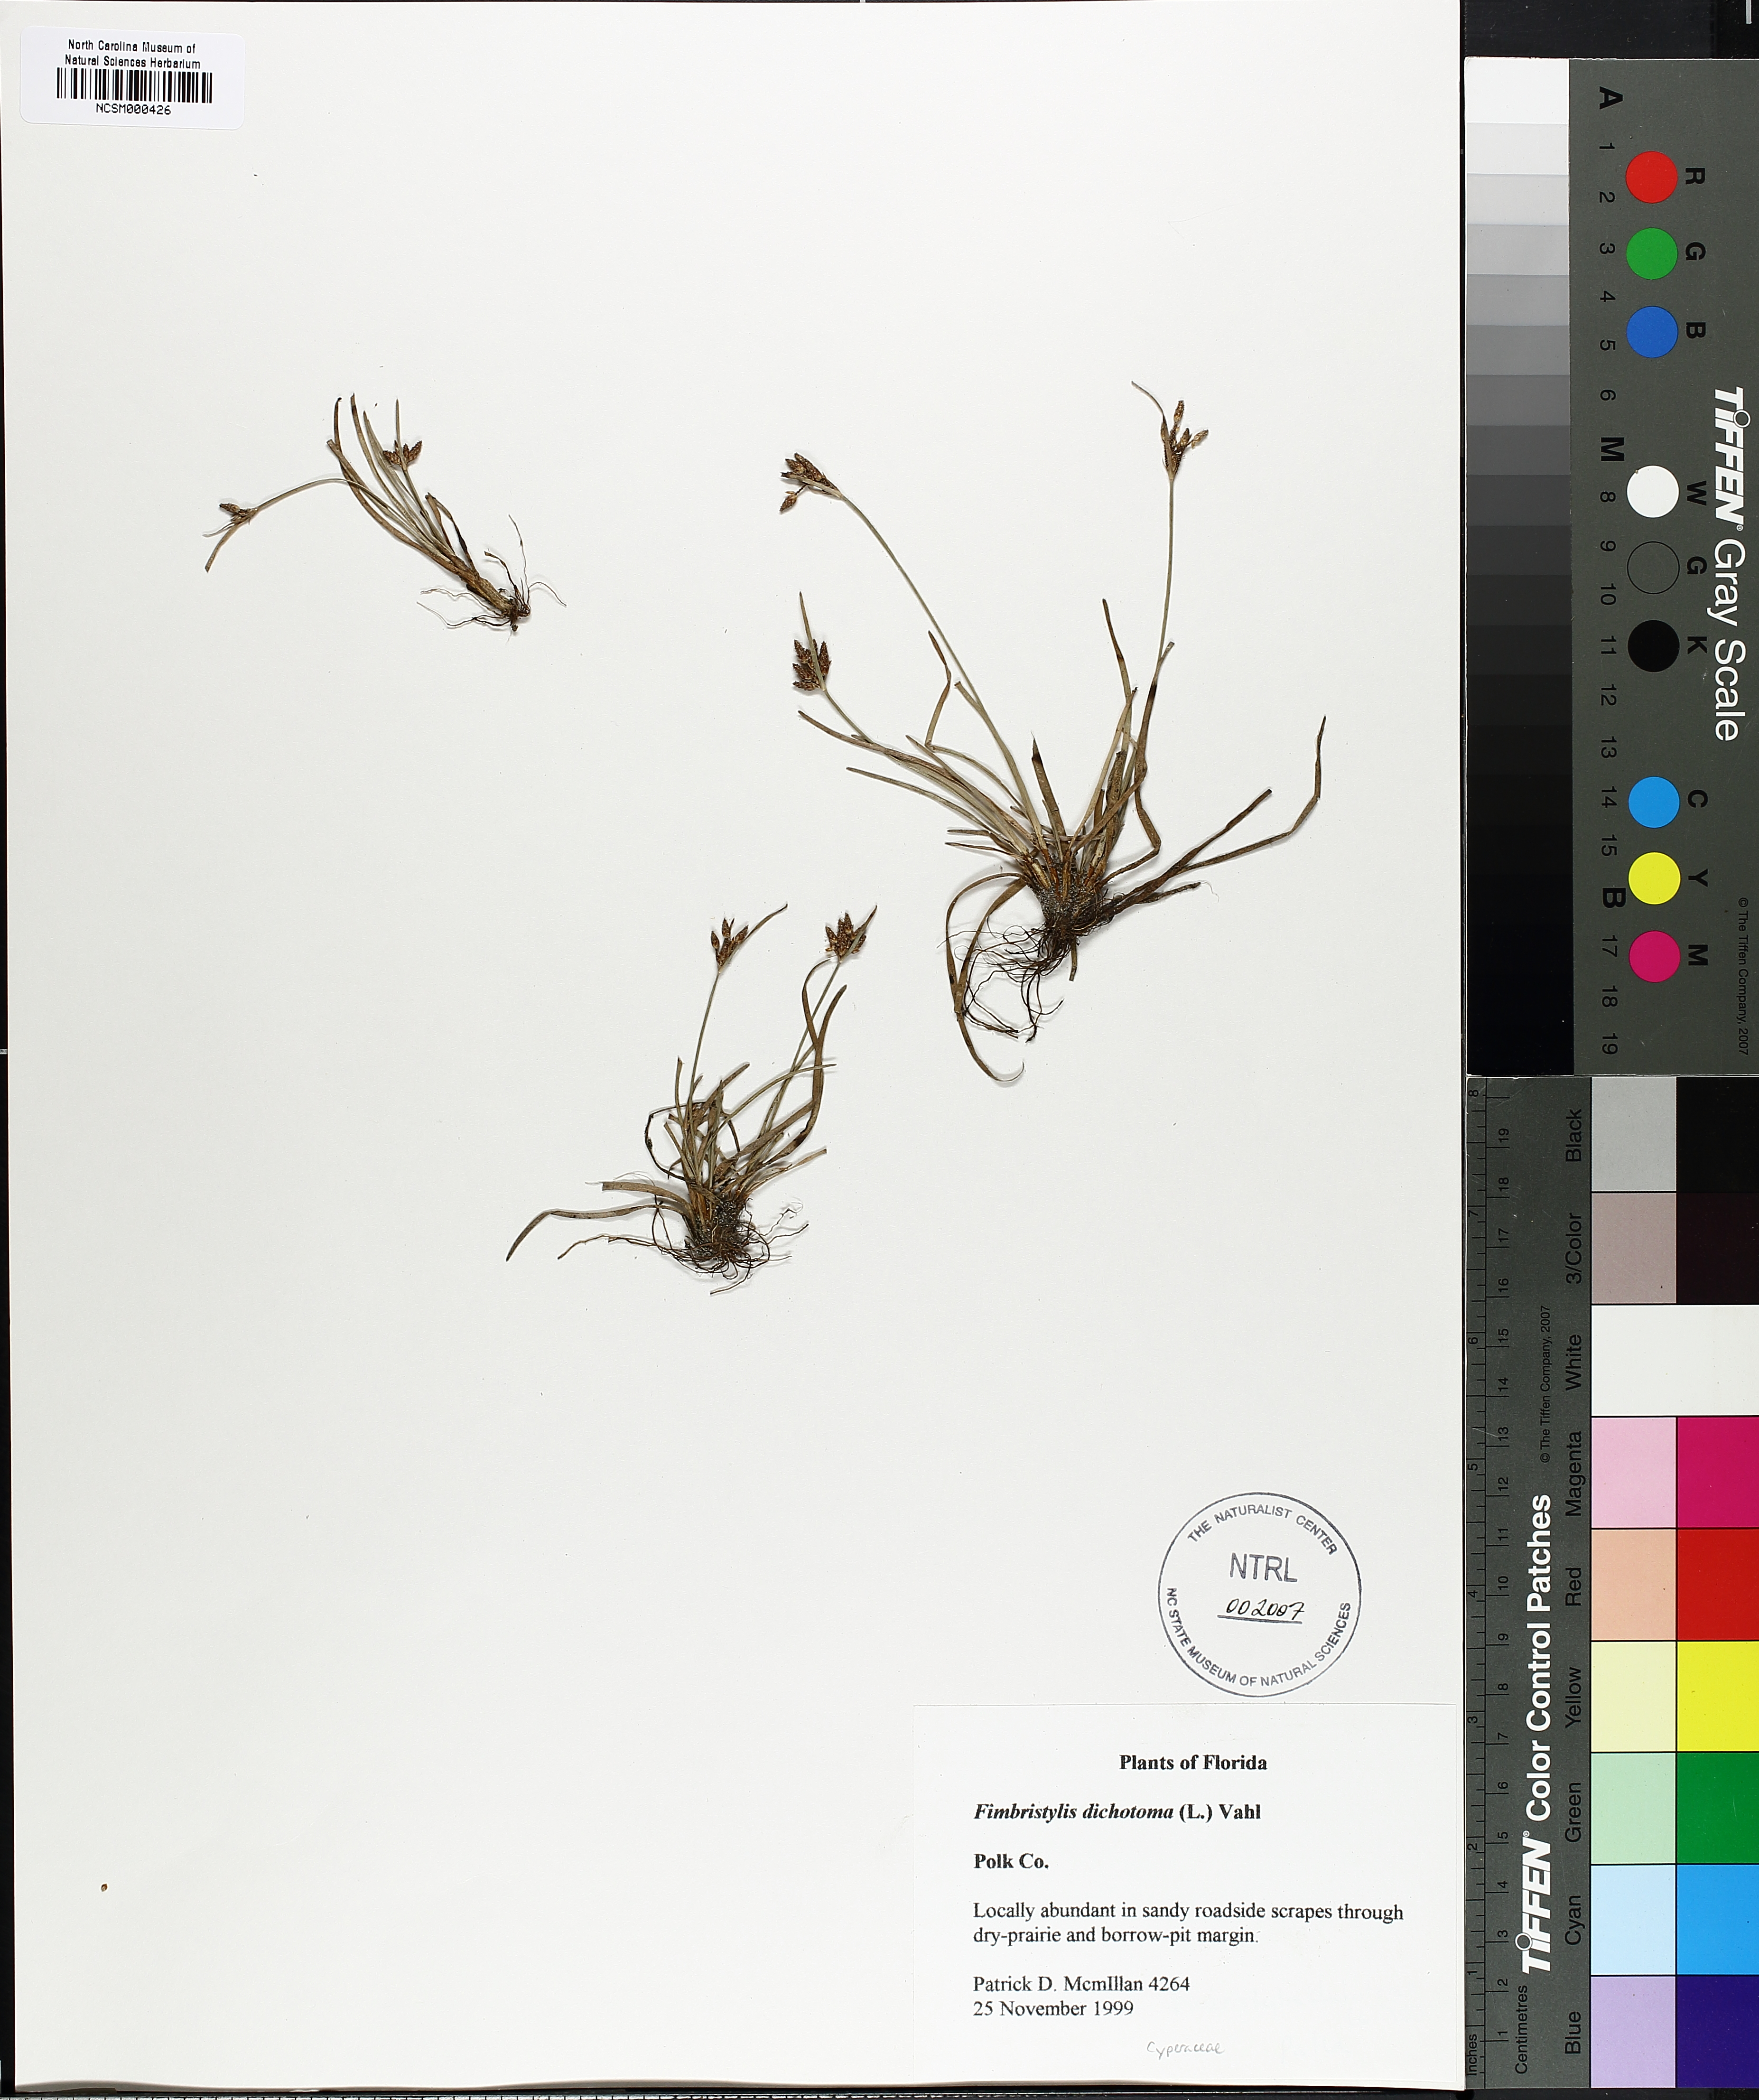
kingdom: Plantae
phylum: Tracheophyta
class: Liliopsida
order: Poales
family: Cyperaceae
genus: Fimbristylis
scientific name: Fimbristylis dichotoma
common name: Forked fimbry
